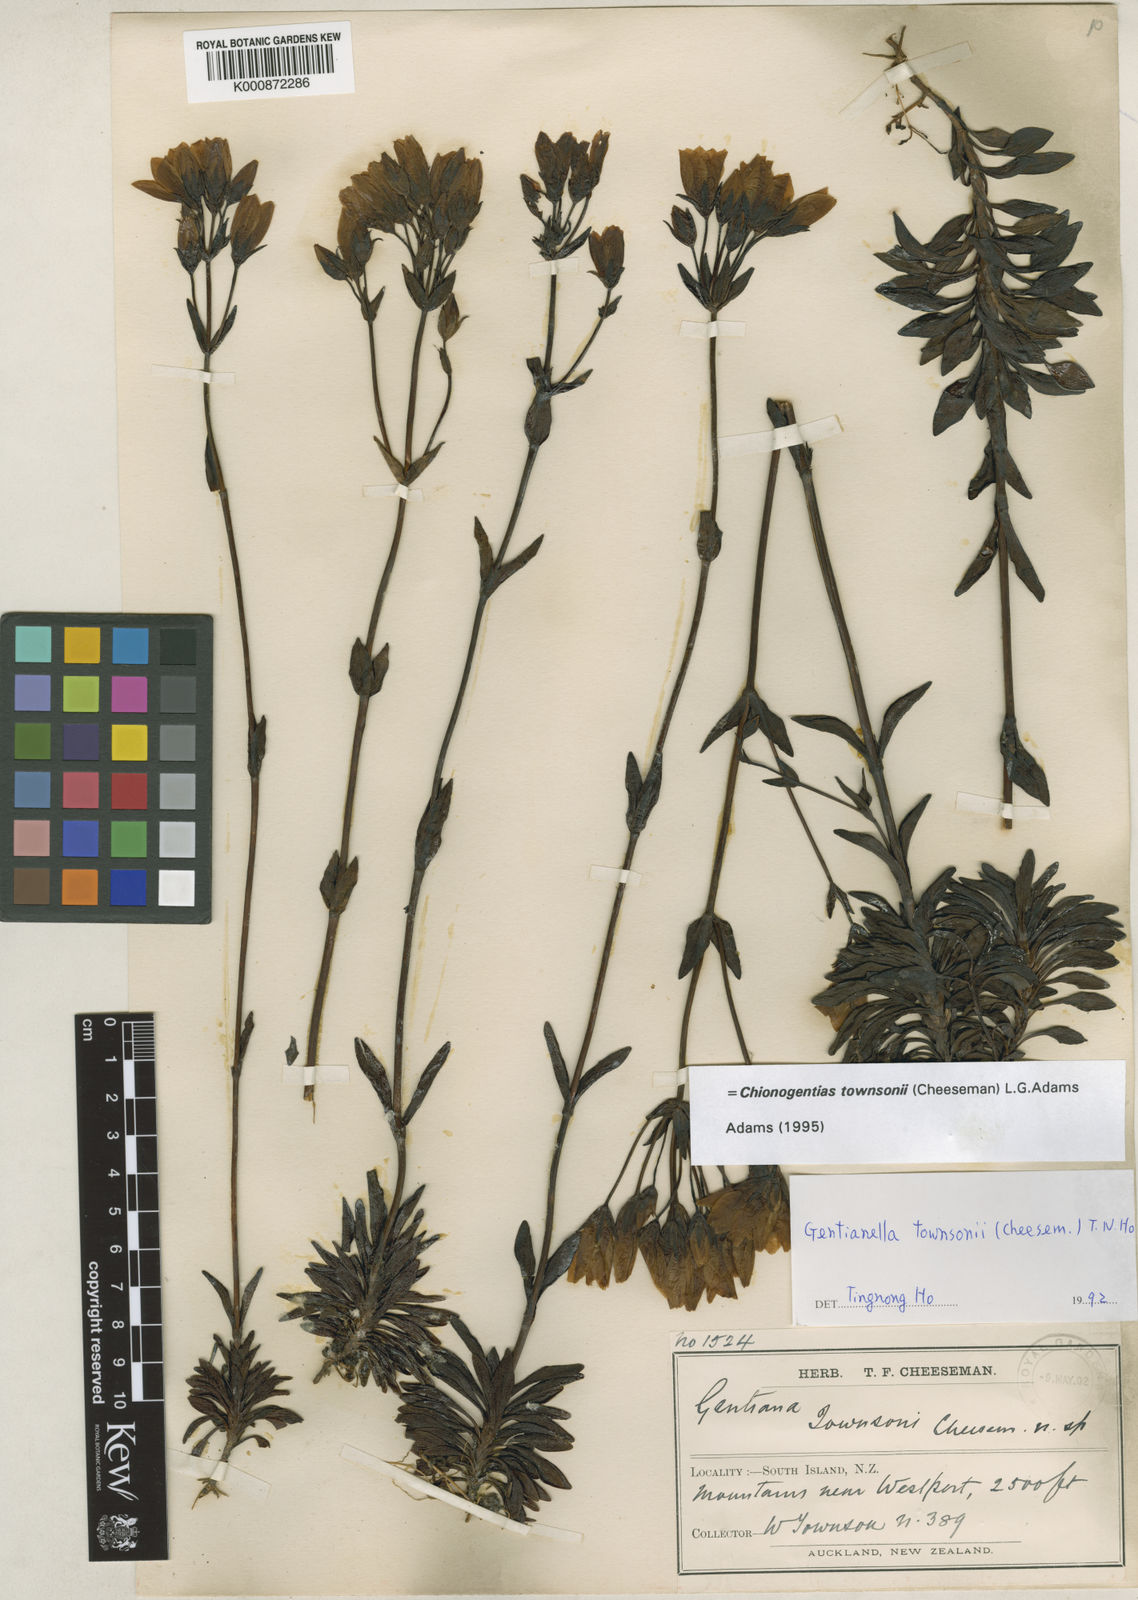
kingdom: Plantae
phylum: Tracheophyta
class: Magnoliopsida
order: Gentianales
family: Gentianaceae
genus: Gentianella
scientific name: Gentianella montana
